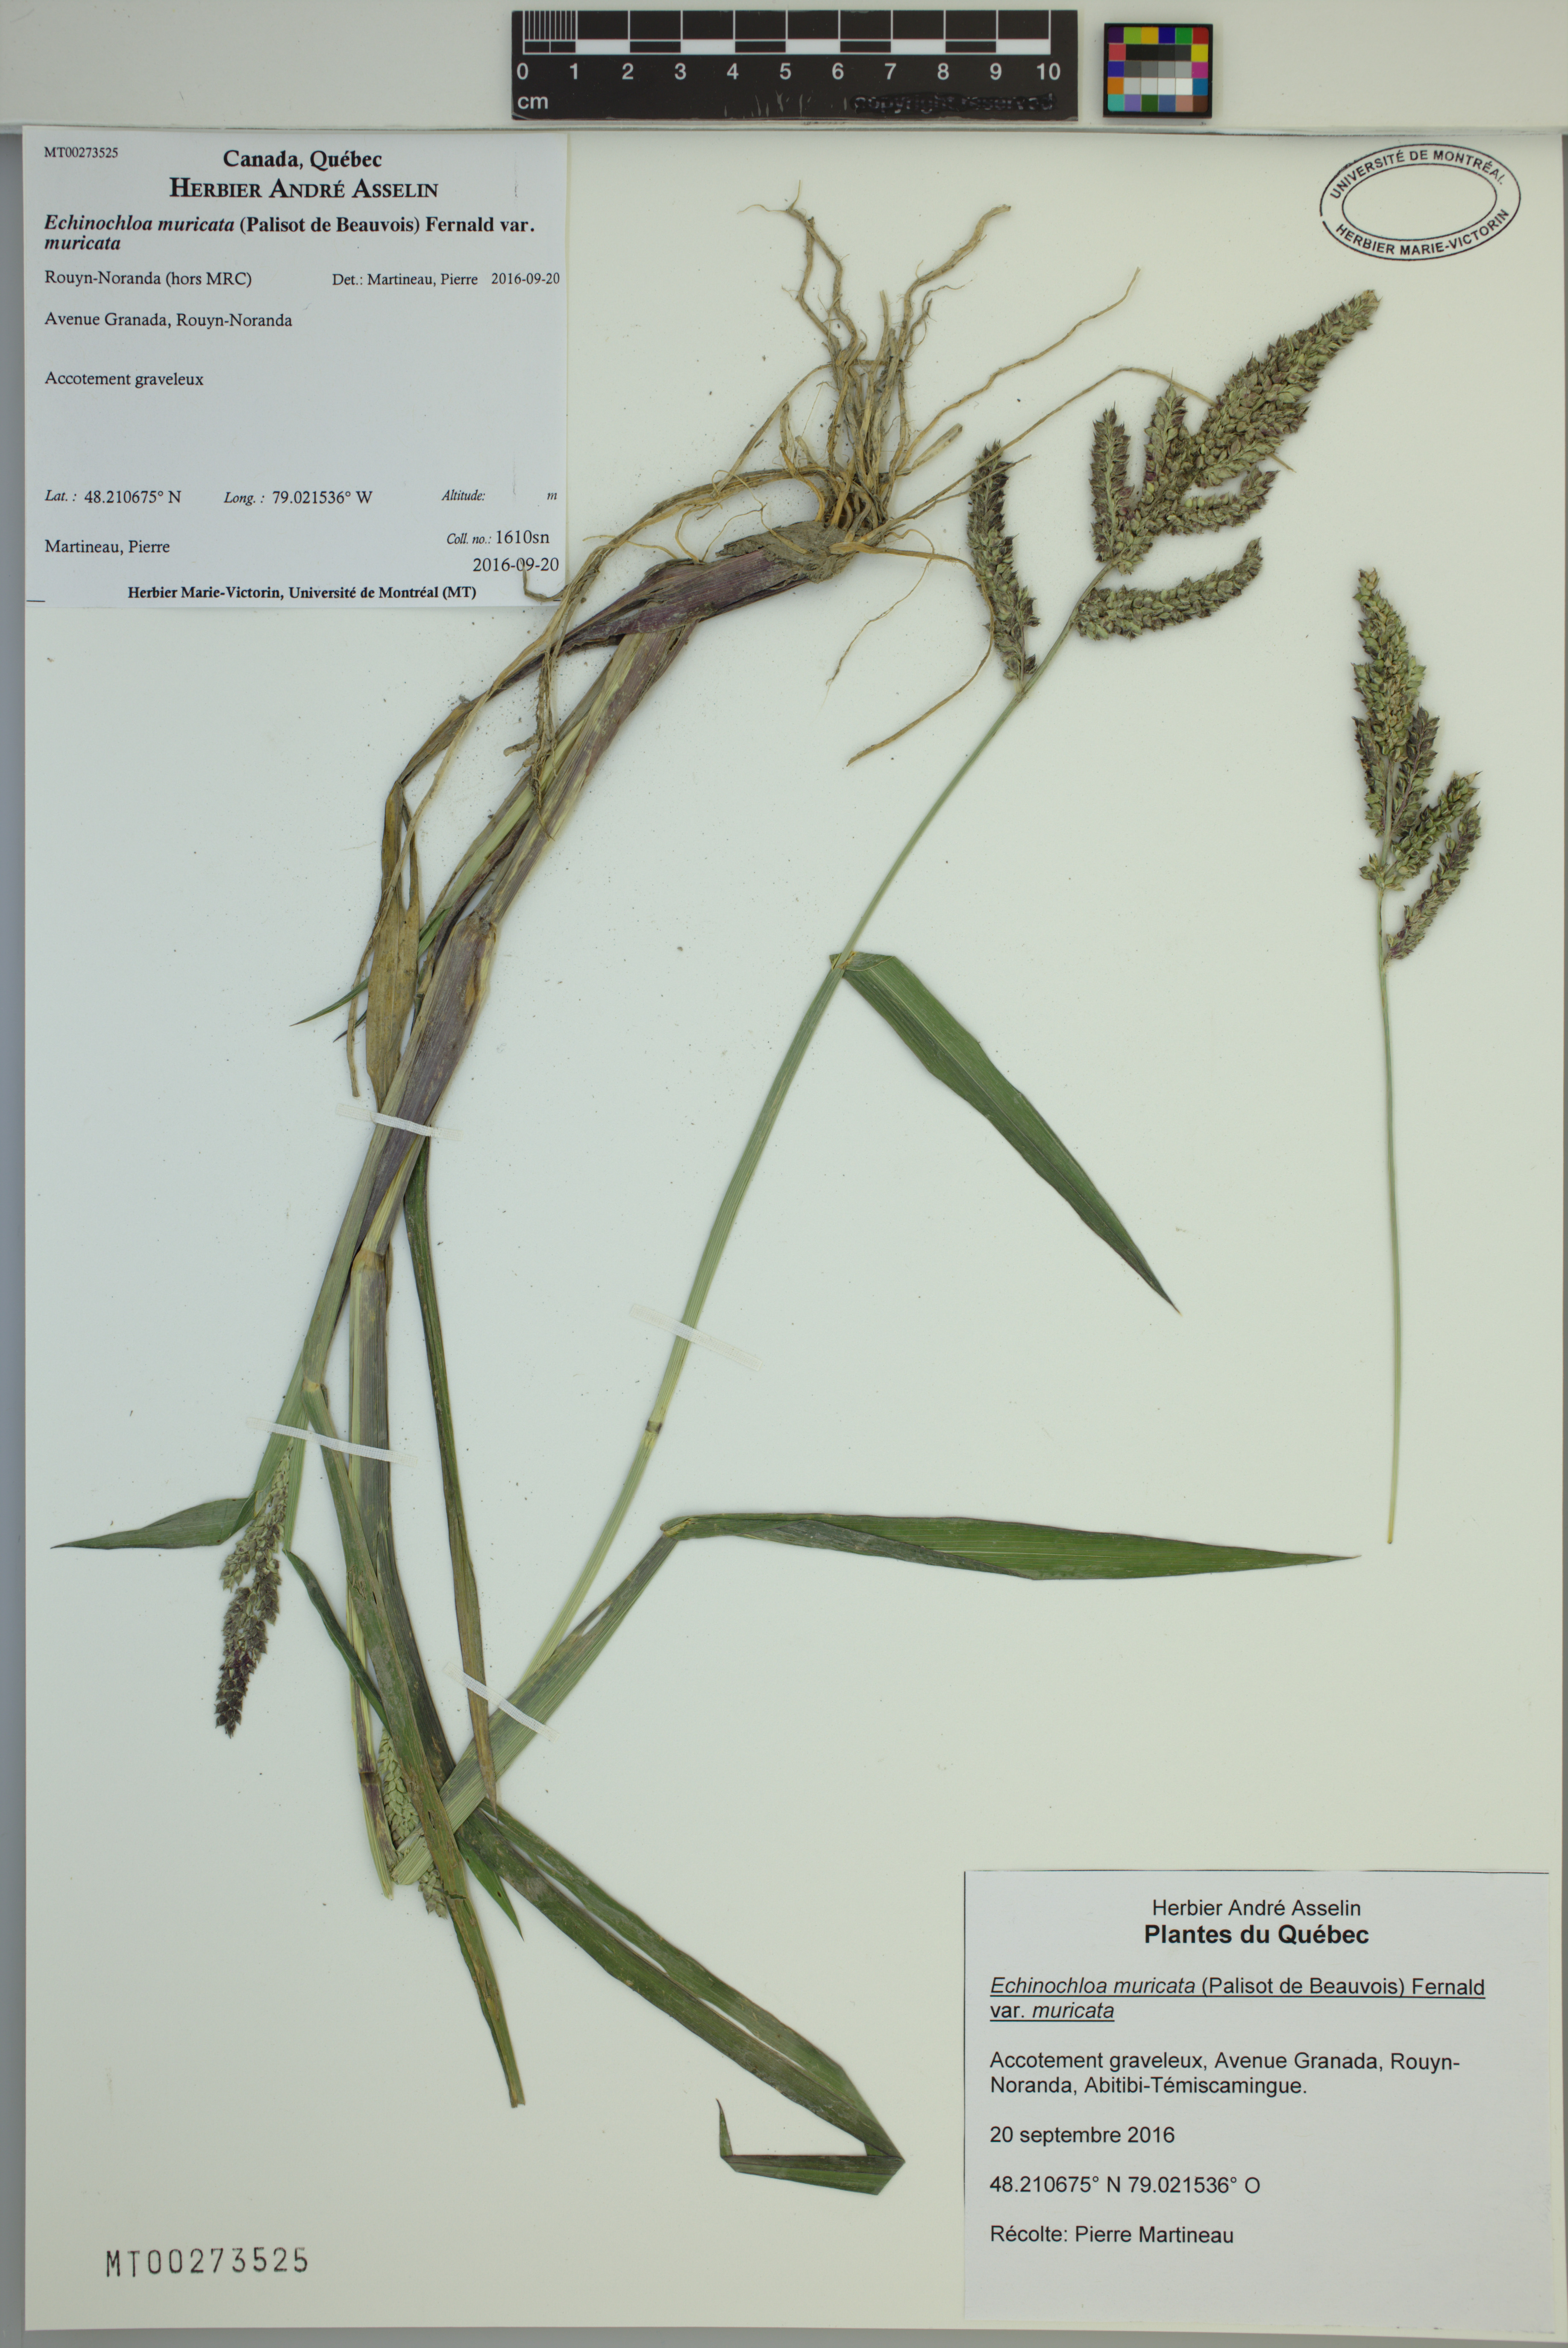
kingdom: Plantae
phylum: Tracheophyta
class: Liliopsida
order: Poales
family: Poaceae
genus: Echinochloa
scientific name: Echinochloa muricata
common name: American barnyard grass
